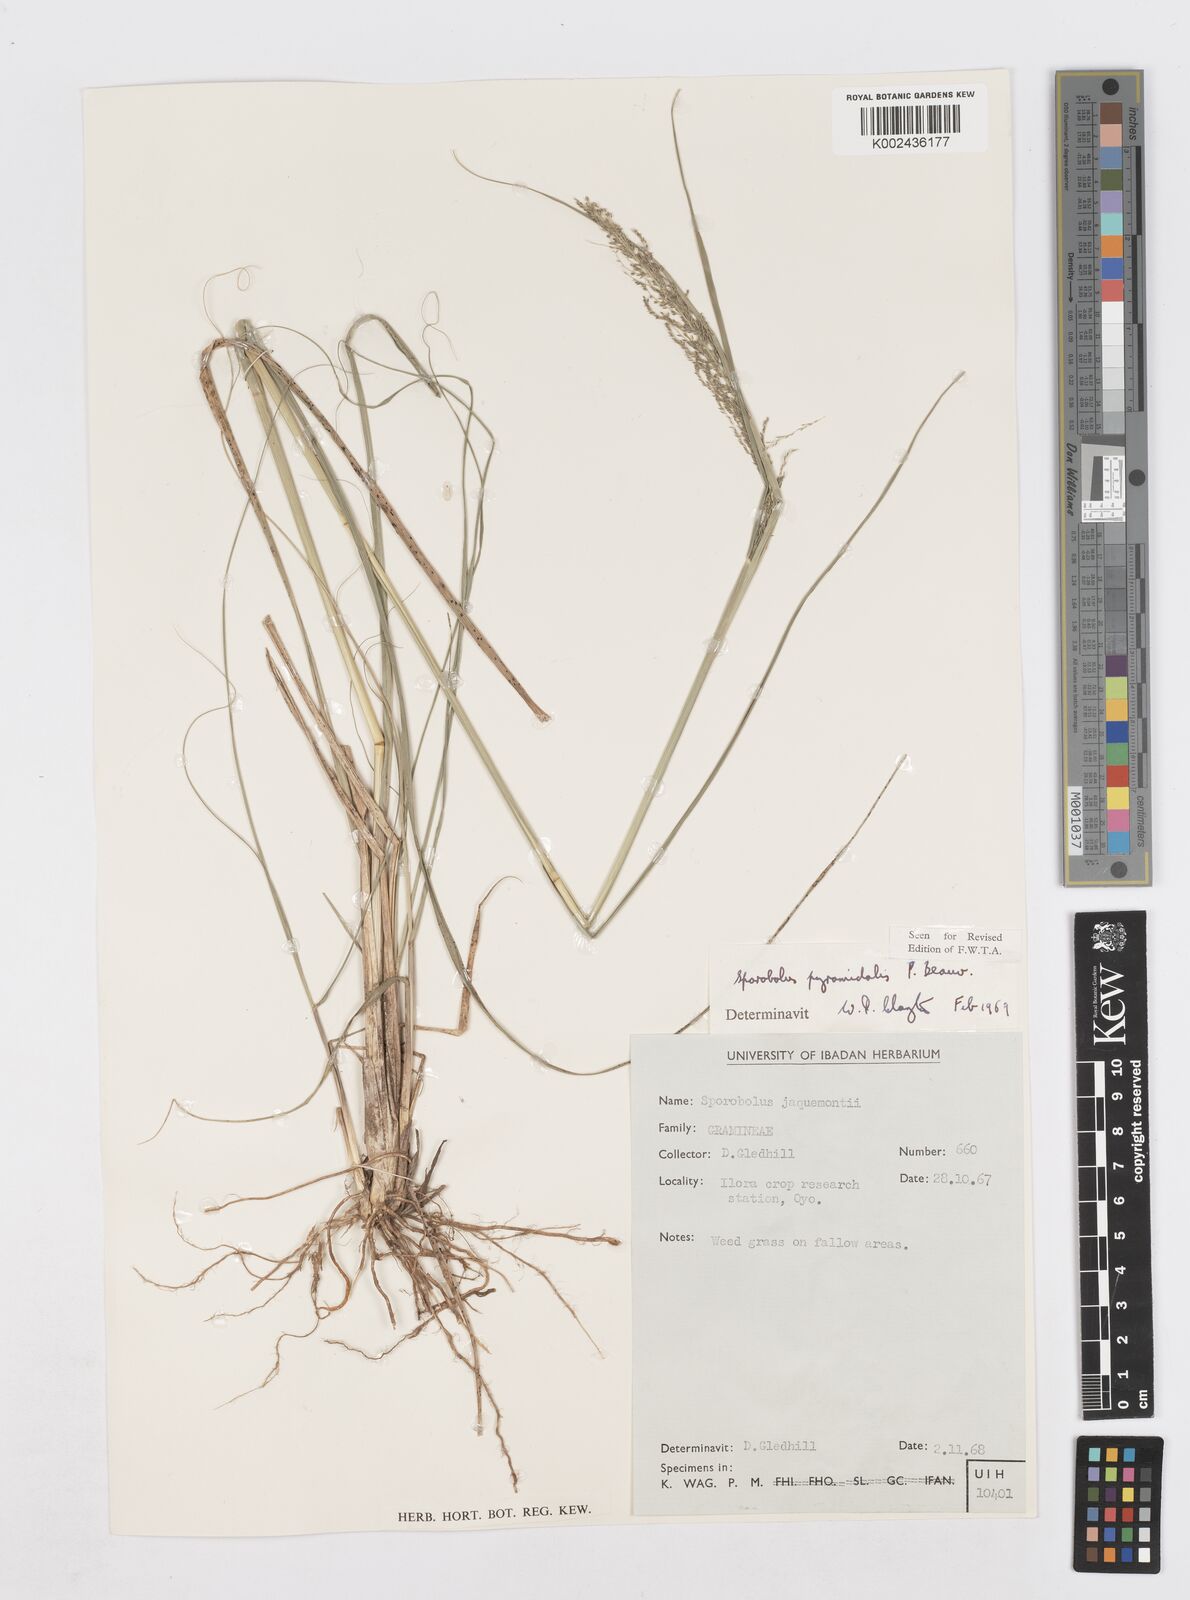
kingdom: Plantae
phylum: Tracheophyta
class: Liliopsida
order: Poales
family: Poaceae
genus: Sporobolus
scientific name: Sporobolus pyramidalis
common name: West indian dropseed
